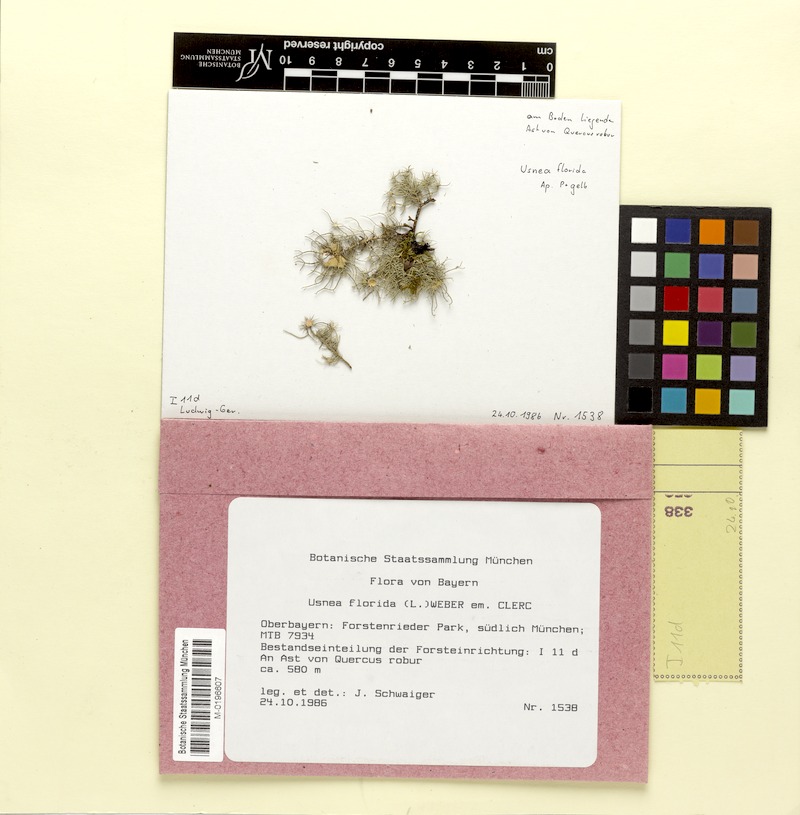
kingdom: Fungi
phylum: Ascomycota
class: Lecanoromycetes
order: Lecanorales
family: Parmeliaceae
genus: Usnea
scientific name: Usnea florida
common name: Witches' whiskers lichen
